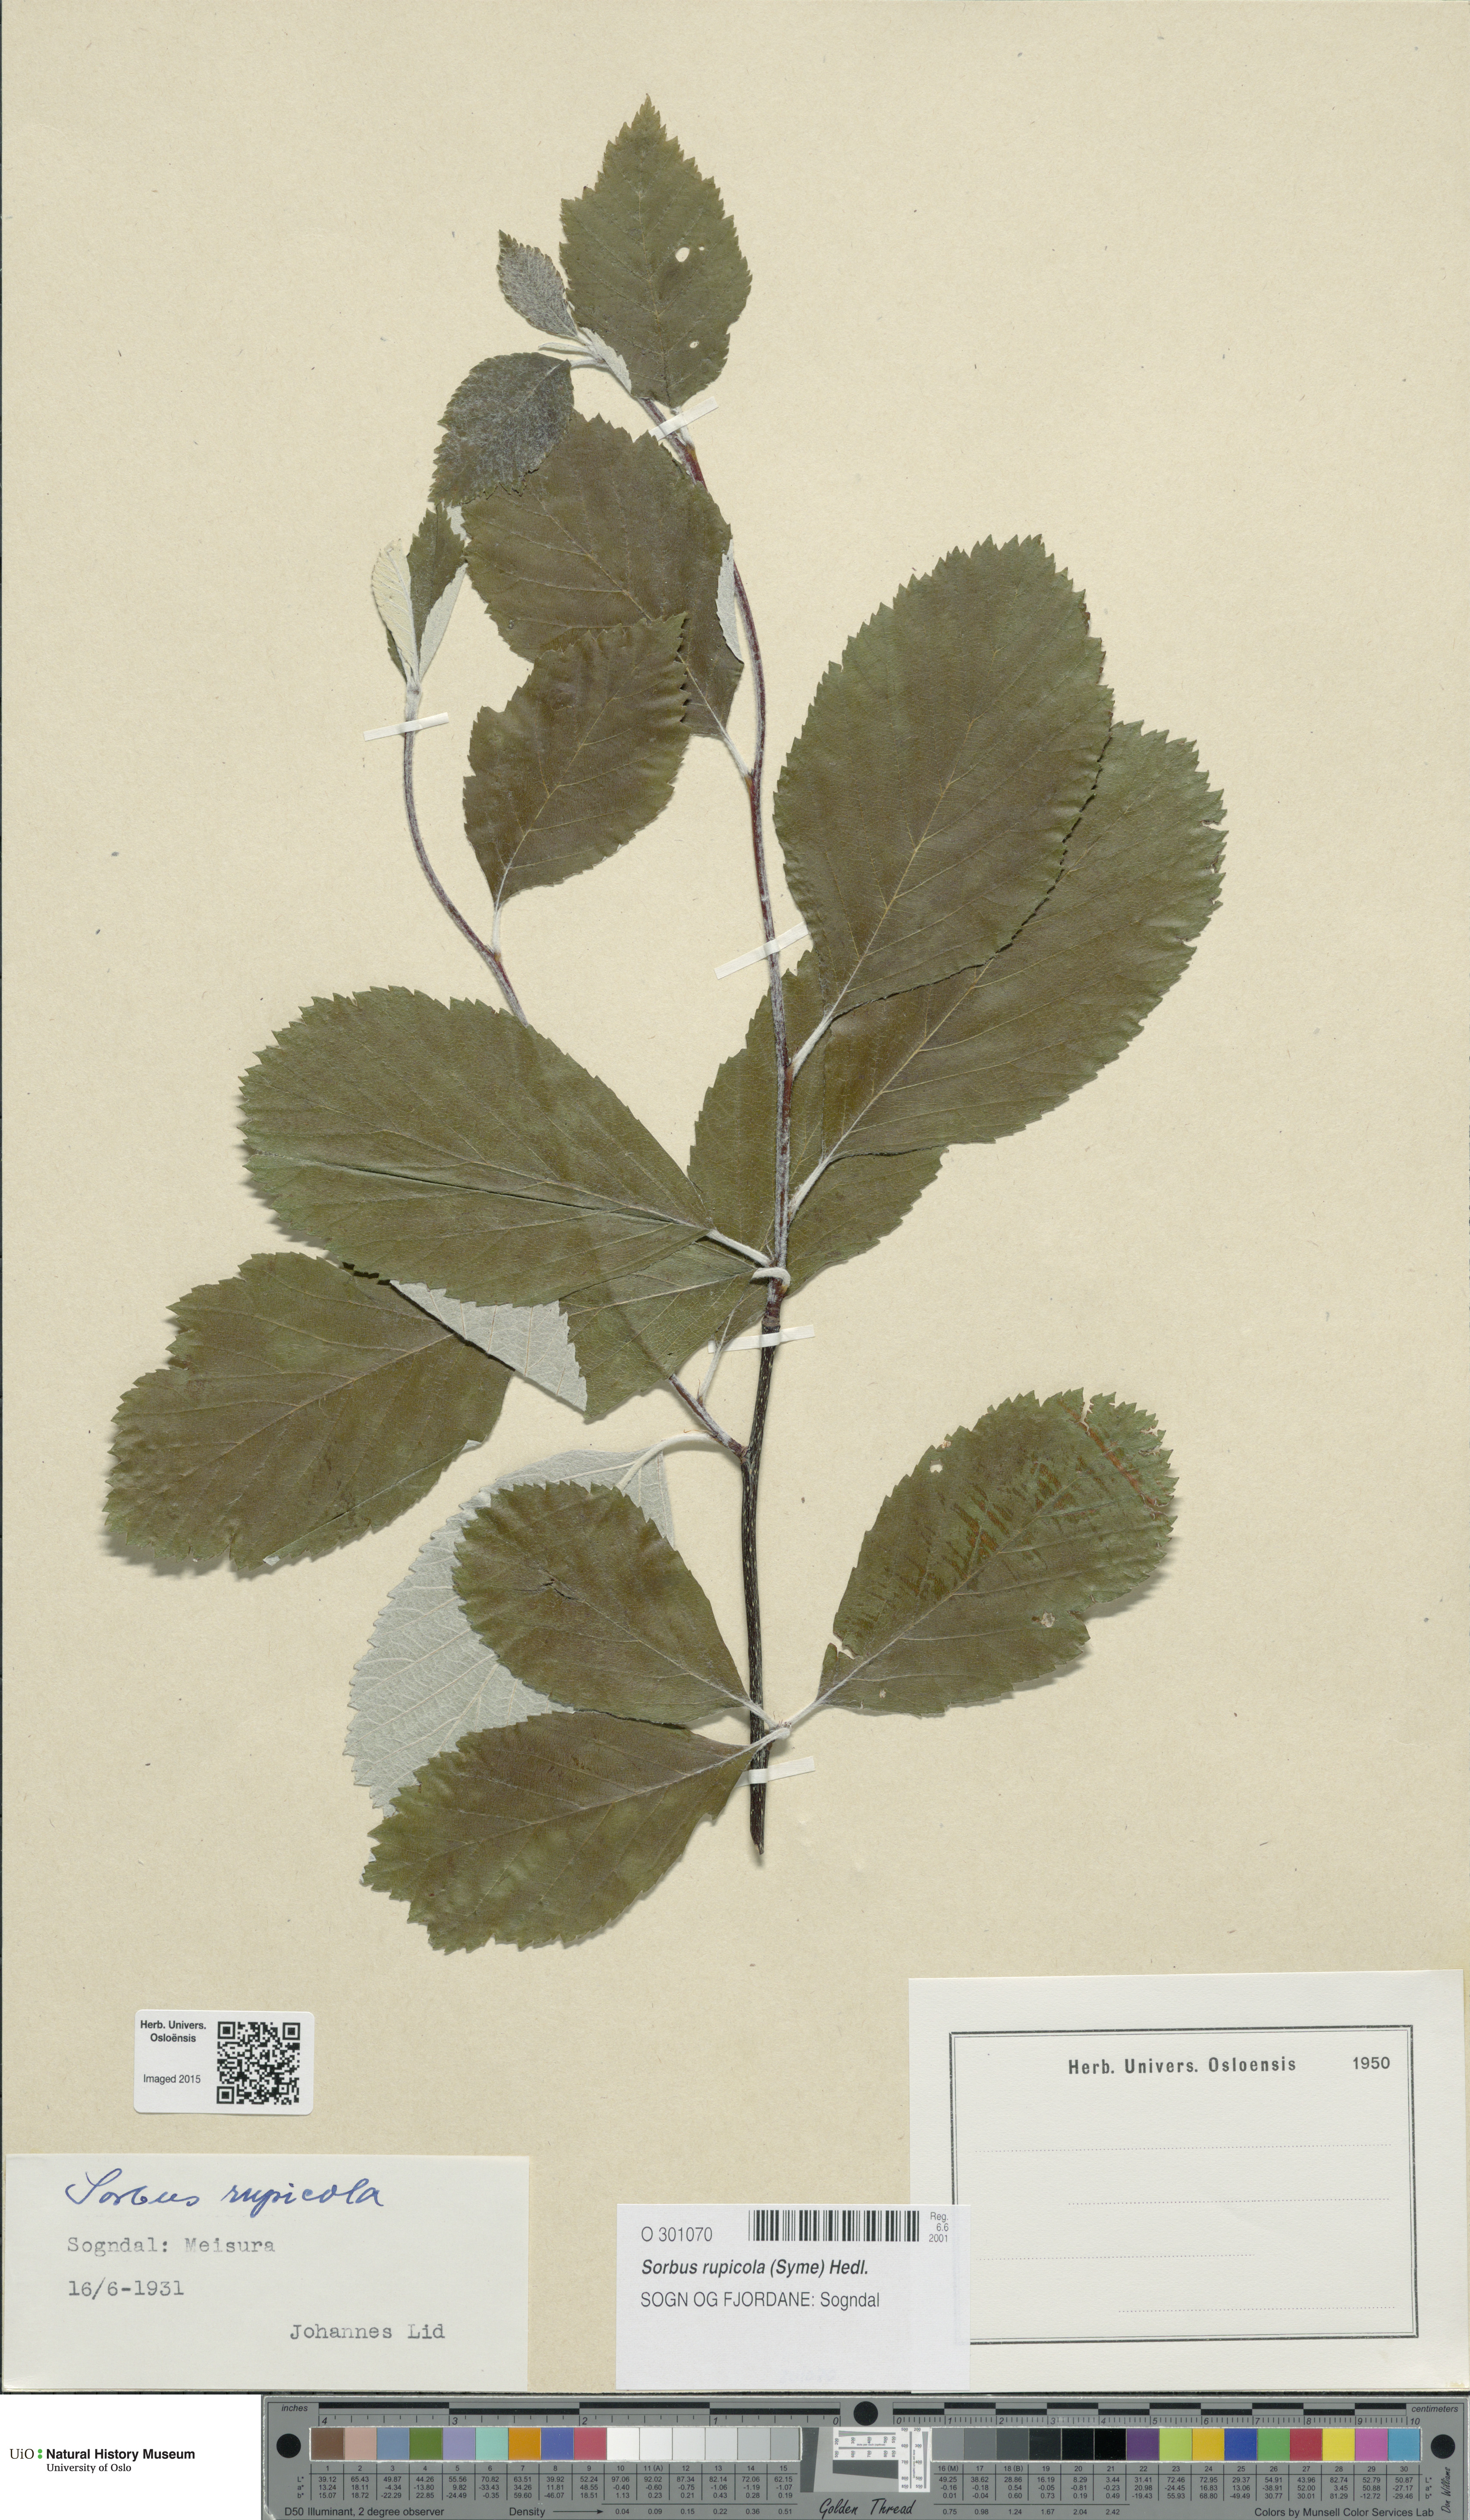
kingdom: Plantae
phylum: Tracheophyta
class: Magnoliopsida
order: Rosales
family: Rosaceae
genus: Aria
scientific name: Aria rupicola
